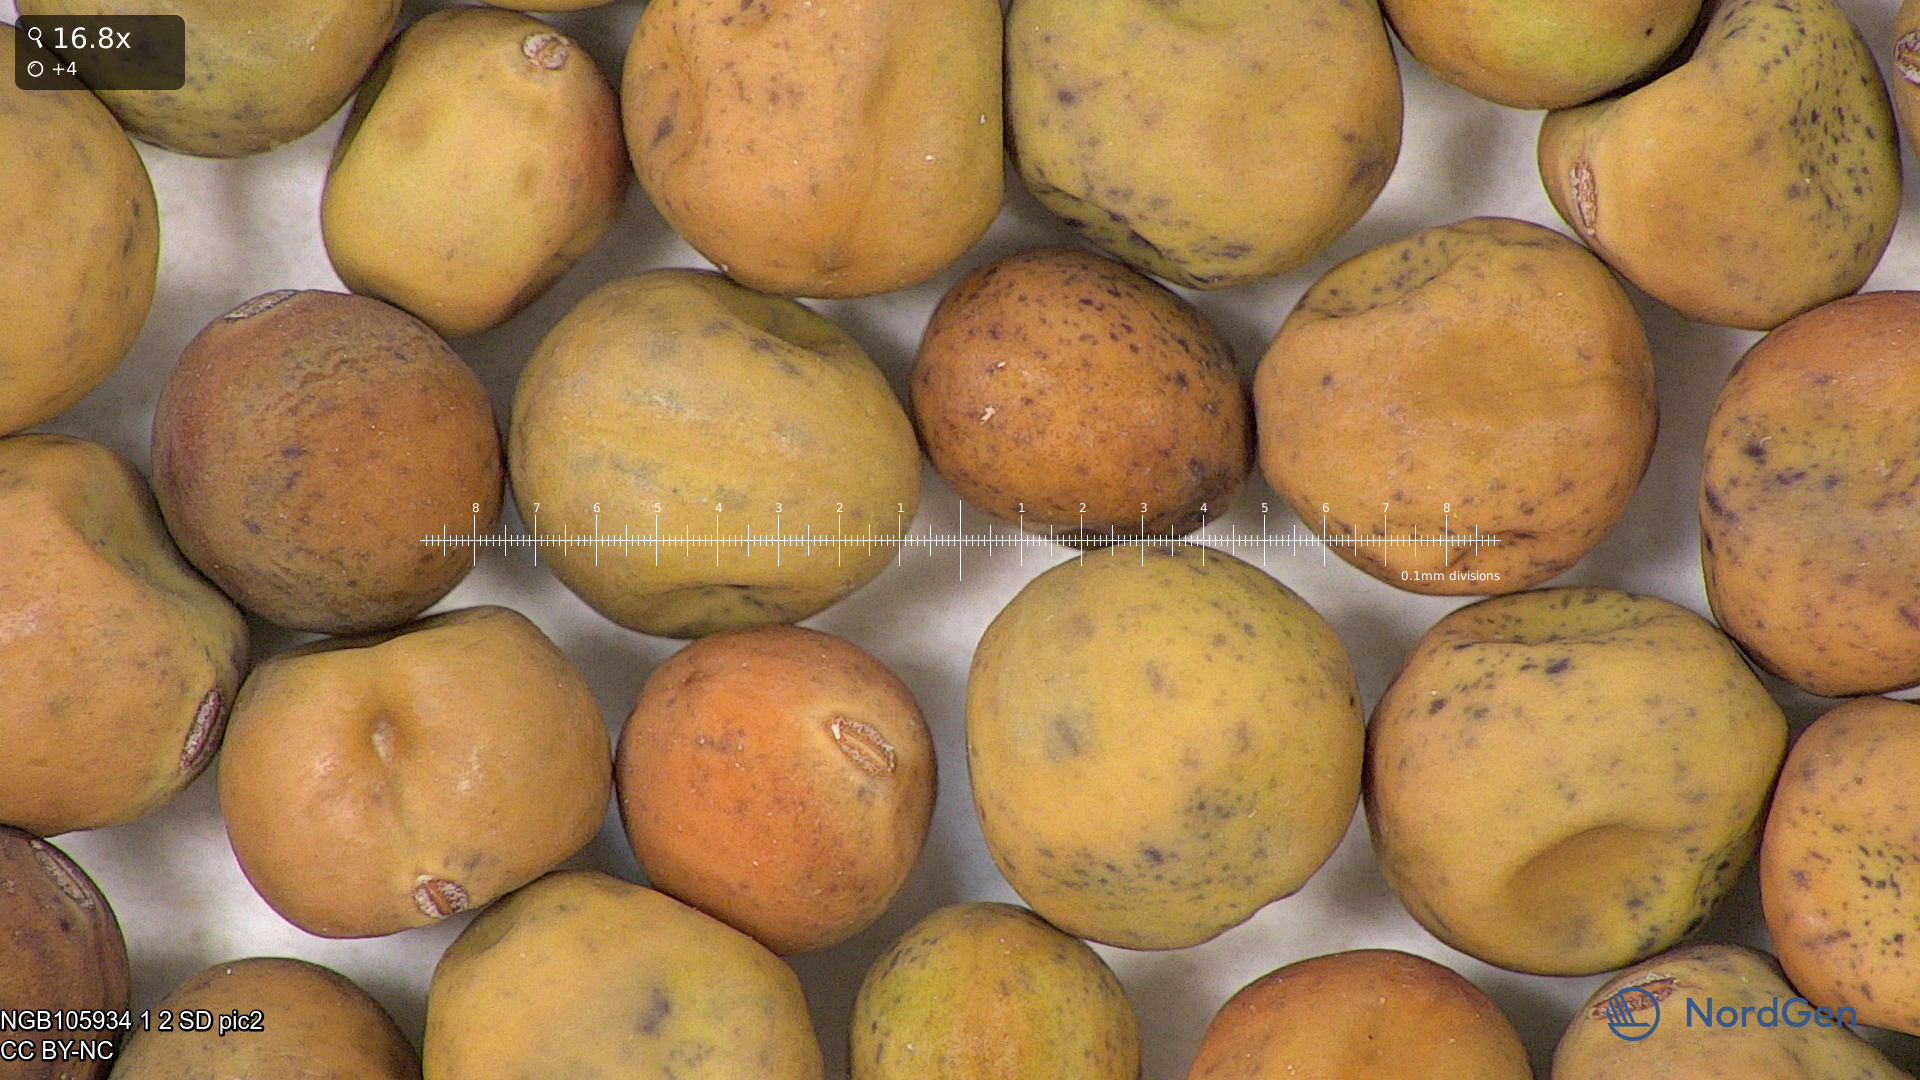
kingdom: Plantae
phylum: Tracheophyta
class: Magnoliopsida
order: Fabales
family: Fabaceae
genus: Lathyrus
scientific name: Lathyrus oleraceus
